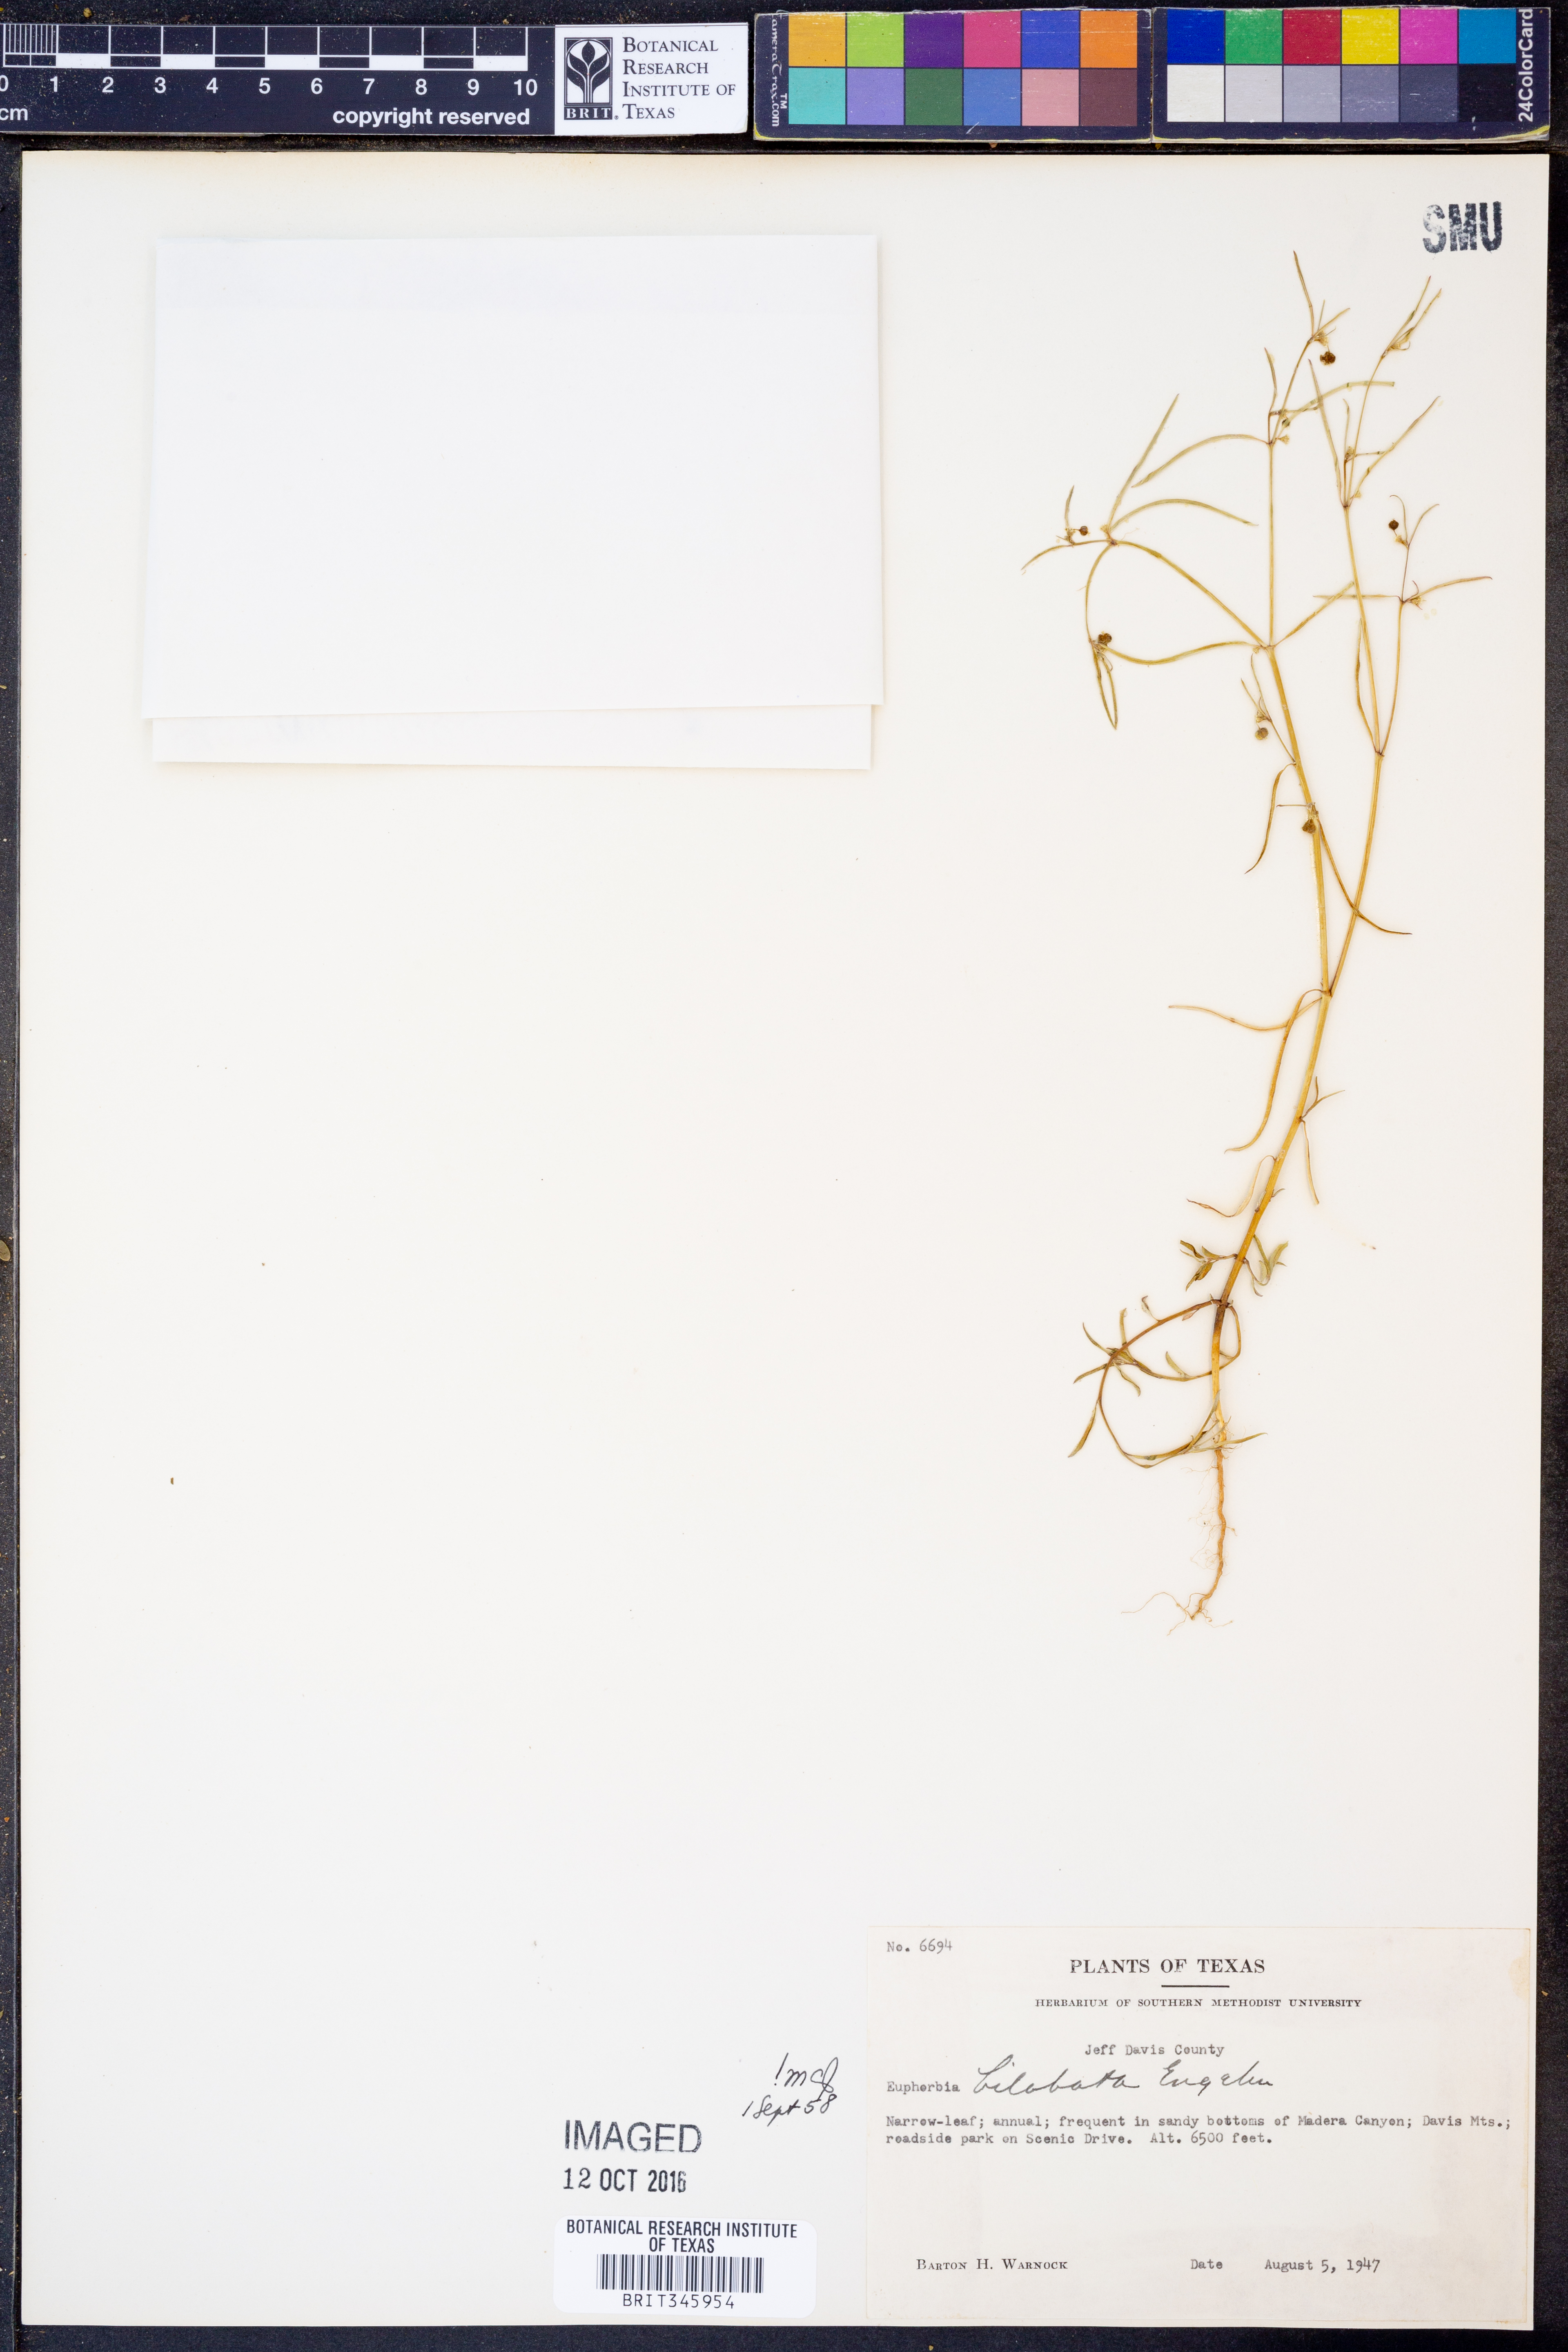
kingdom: Plantae
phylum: Tracheophyta
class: Magnoliopsida
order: Malpighiales
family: Euphorbiaceae
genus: Euphorbia
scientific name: Euphorbia bilobata
